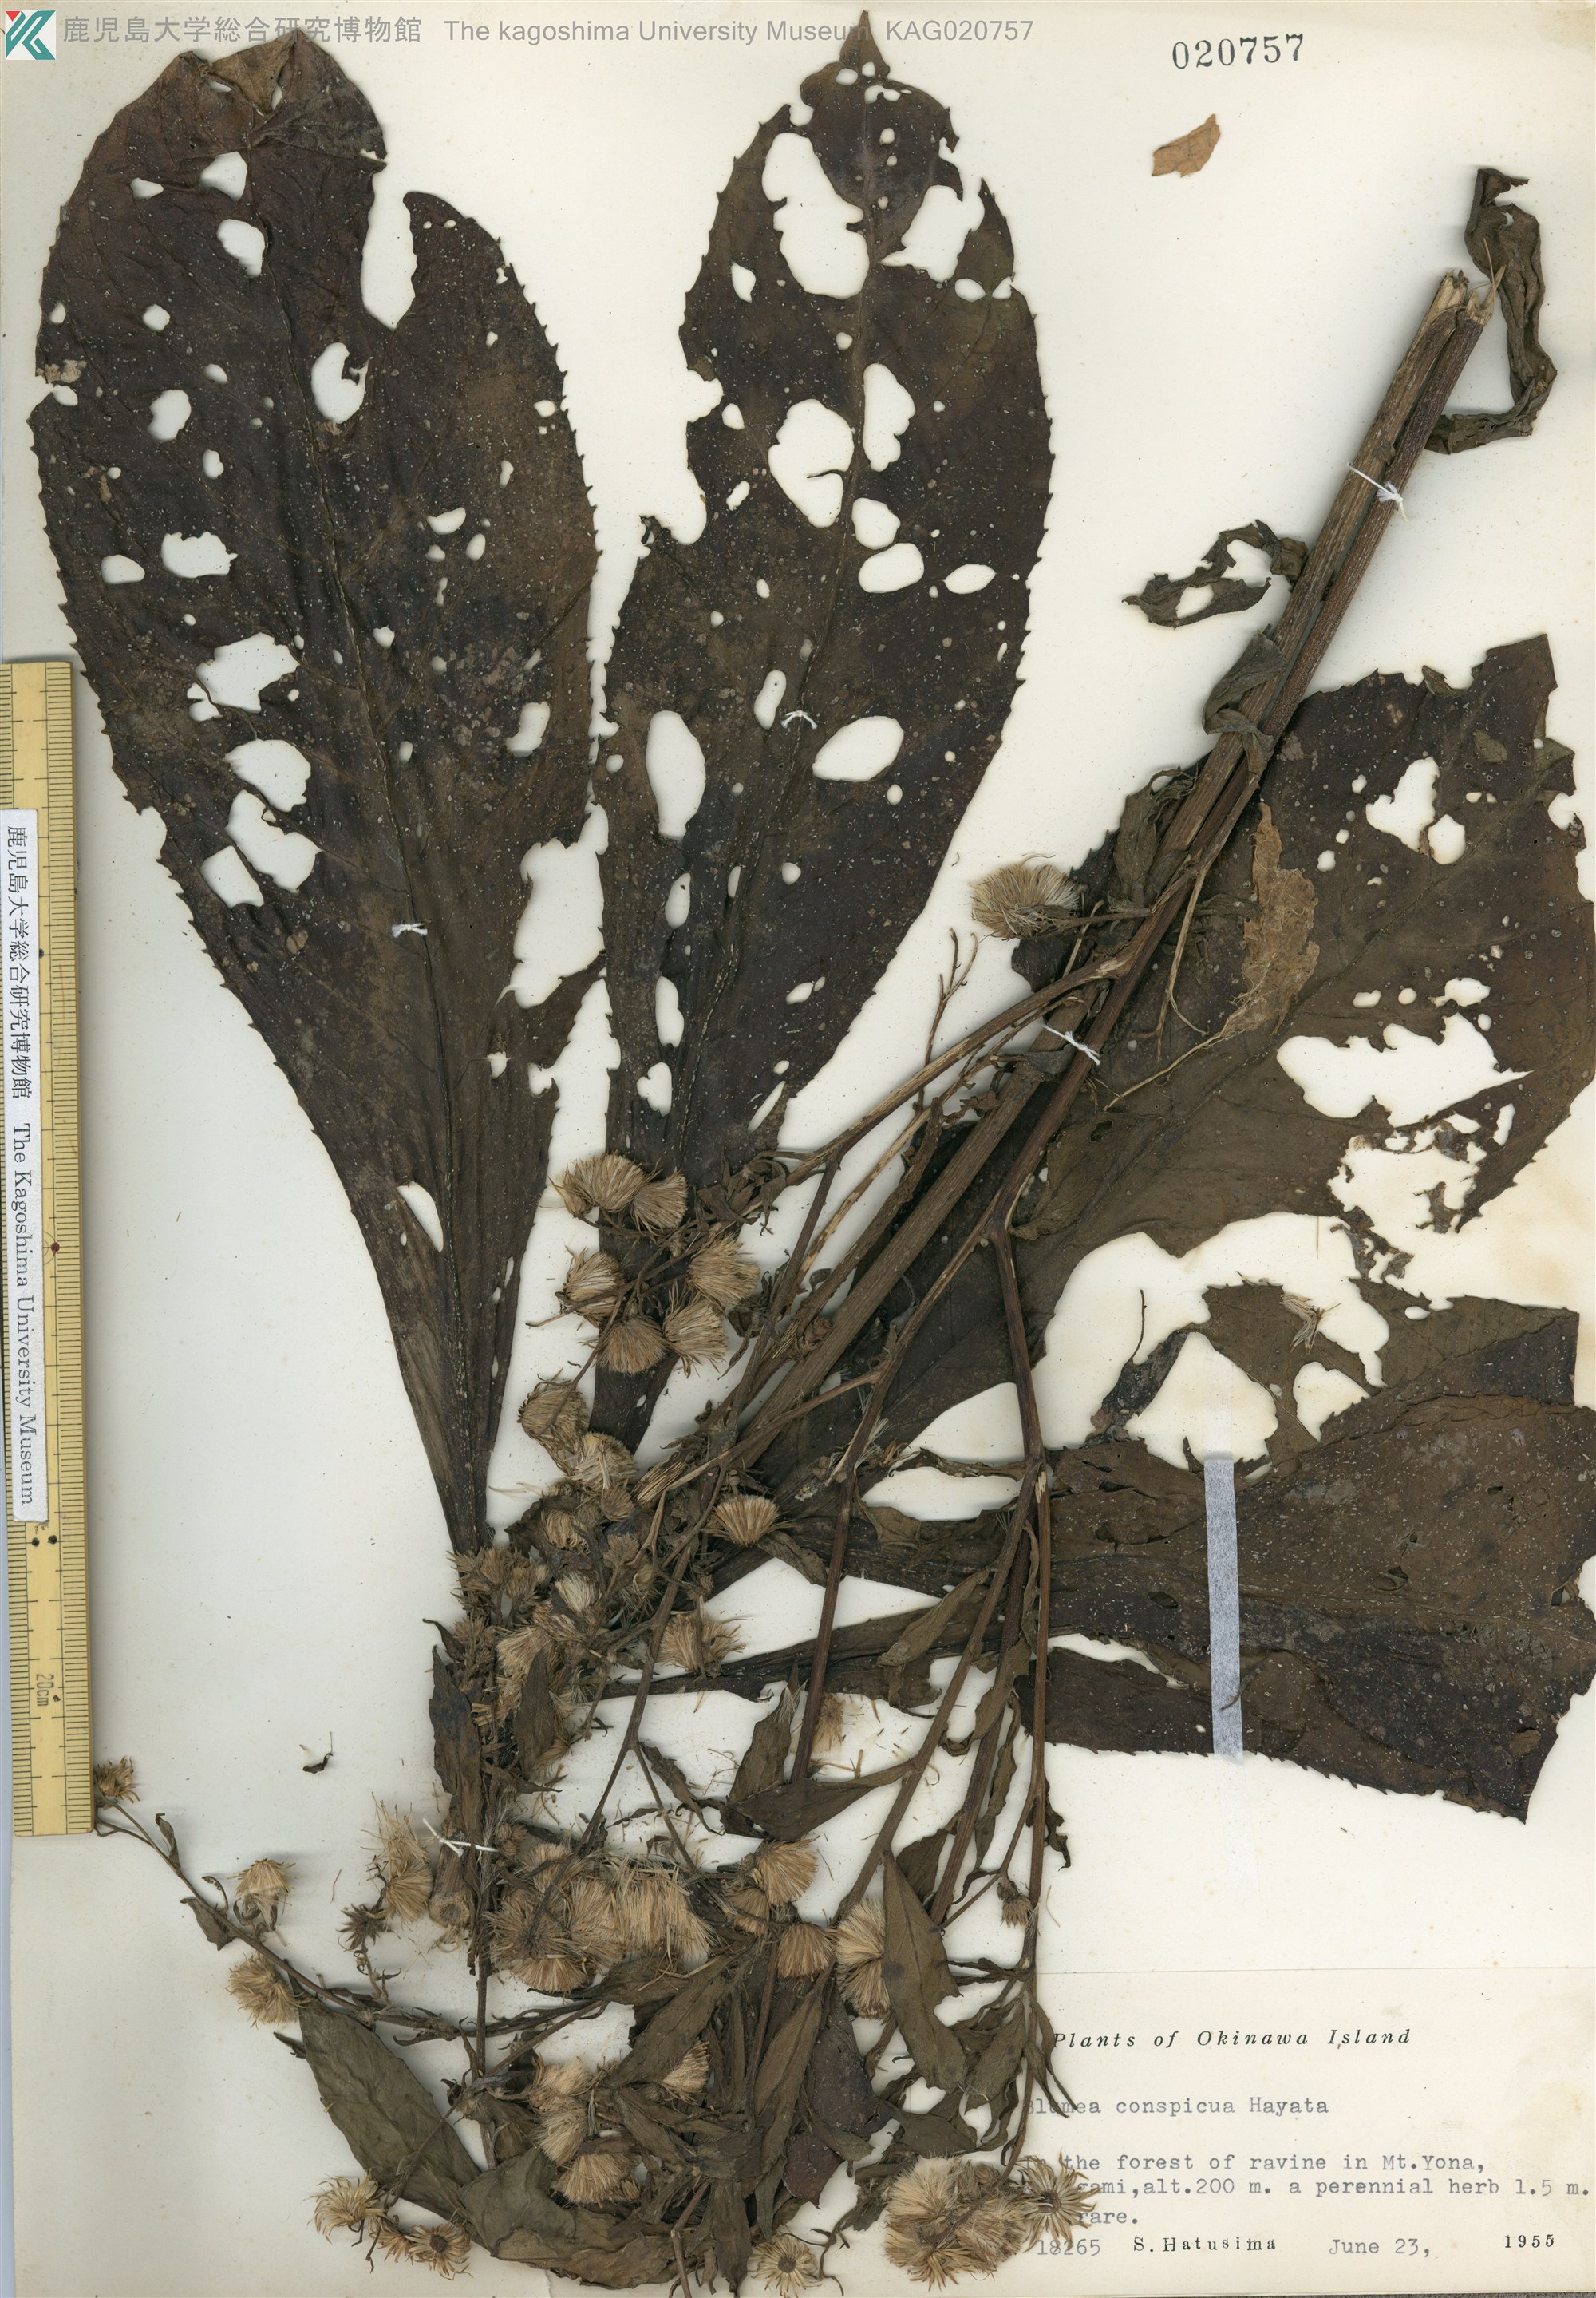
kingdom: Plantae
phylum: Tracheophyta
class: Magnoliopsida
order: Asterales
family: Asteraceae
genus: Blumea
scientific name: Blumea conspicua
